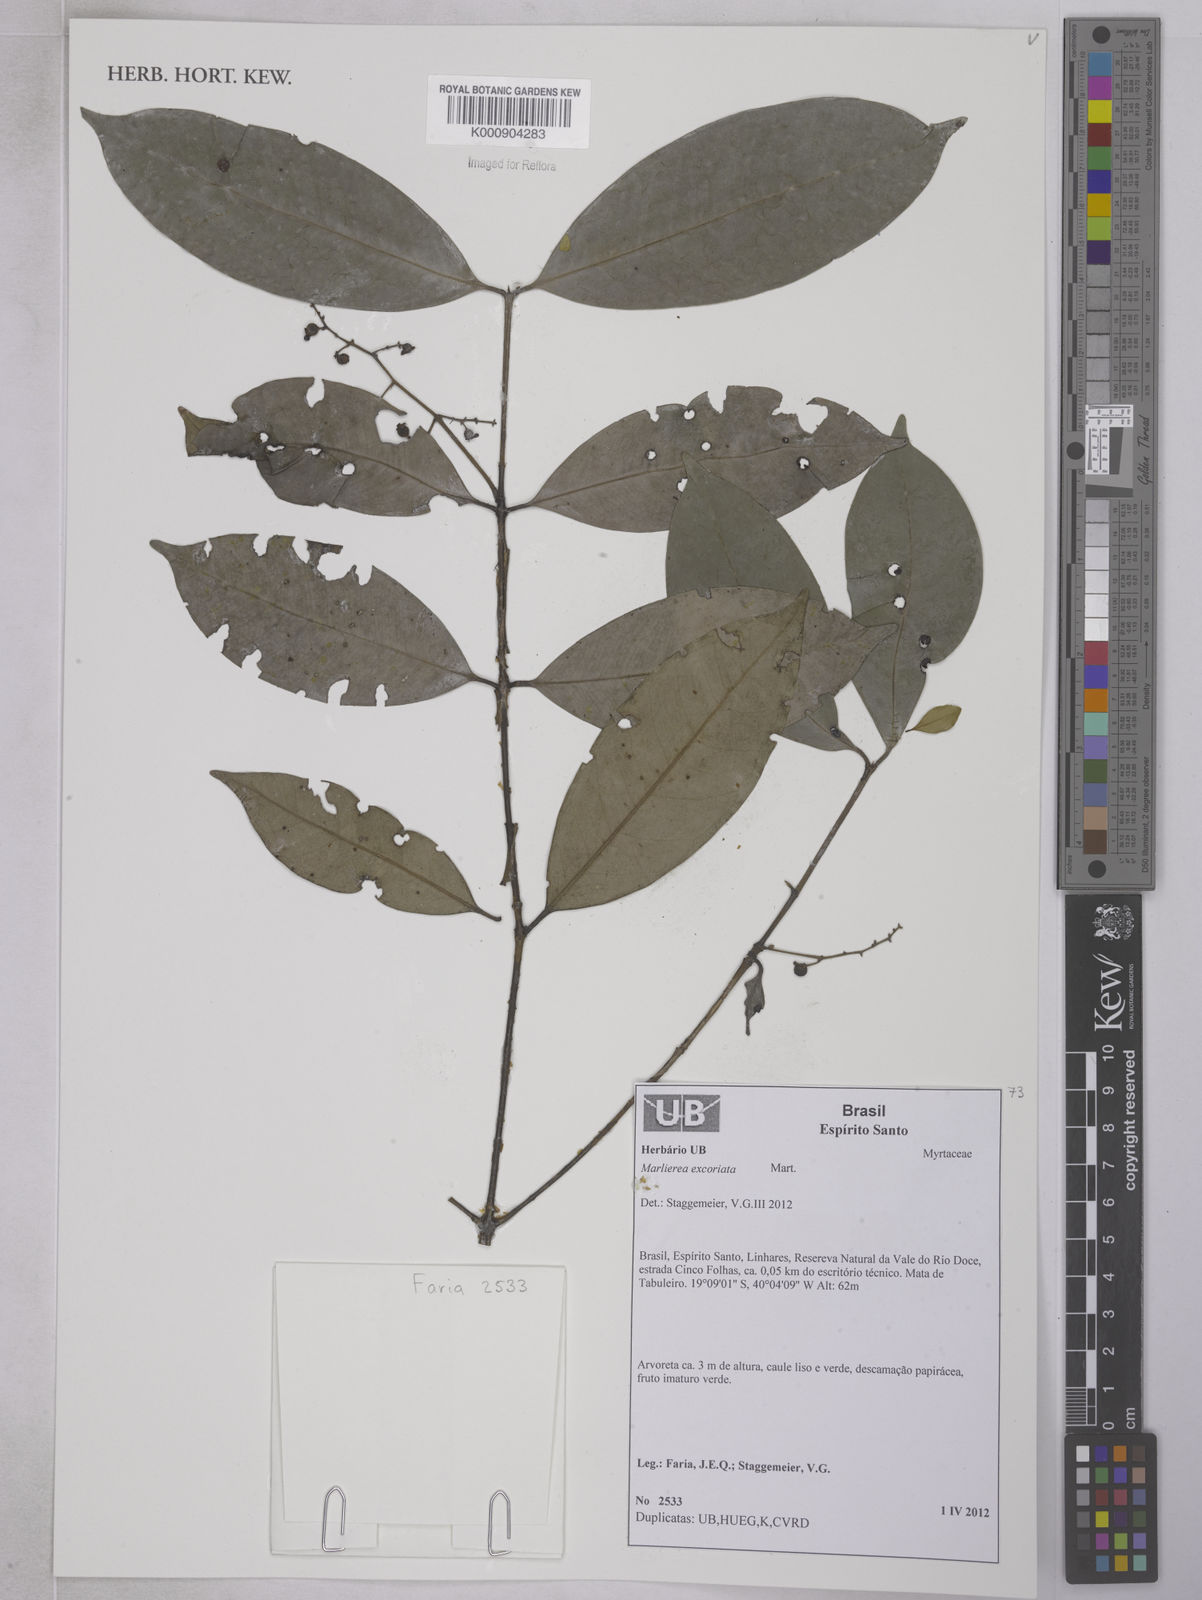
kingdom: Plantae
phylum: Tracheophyta
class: Magnoliopsida
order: Myrtales
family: Myrtaceae
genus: Myrcia
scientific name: Myrcia excoriata
